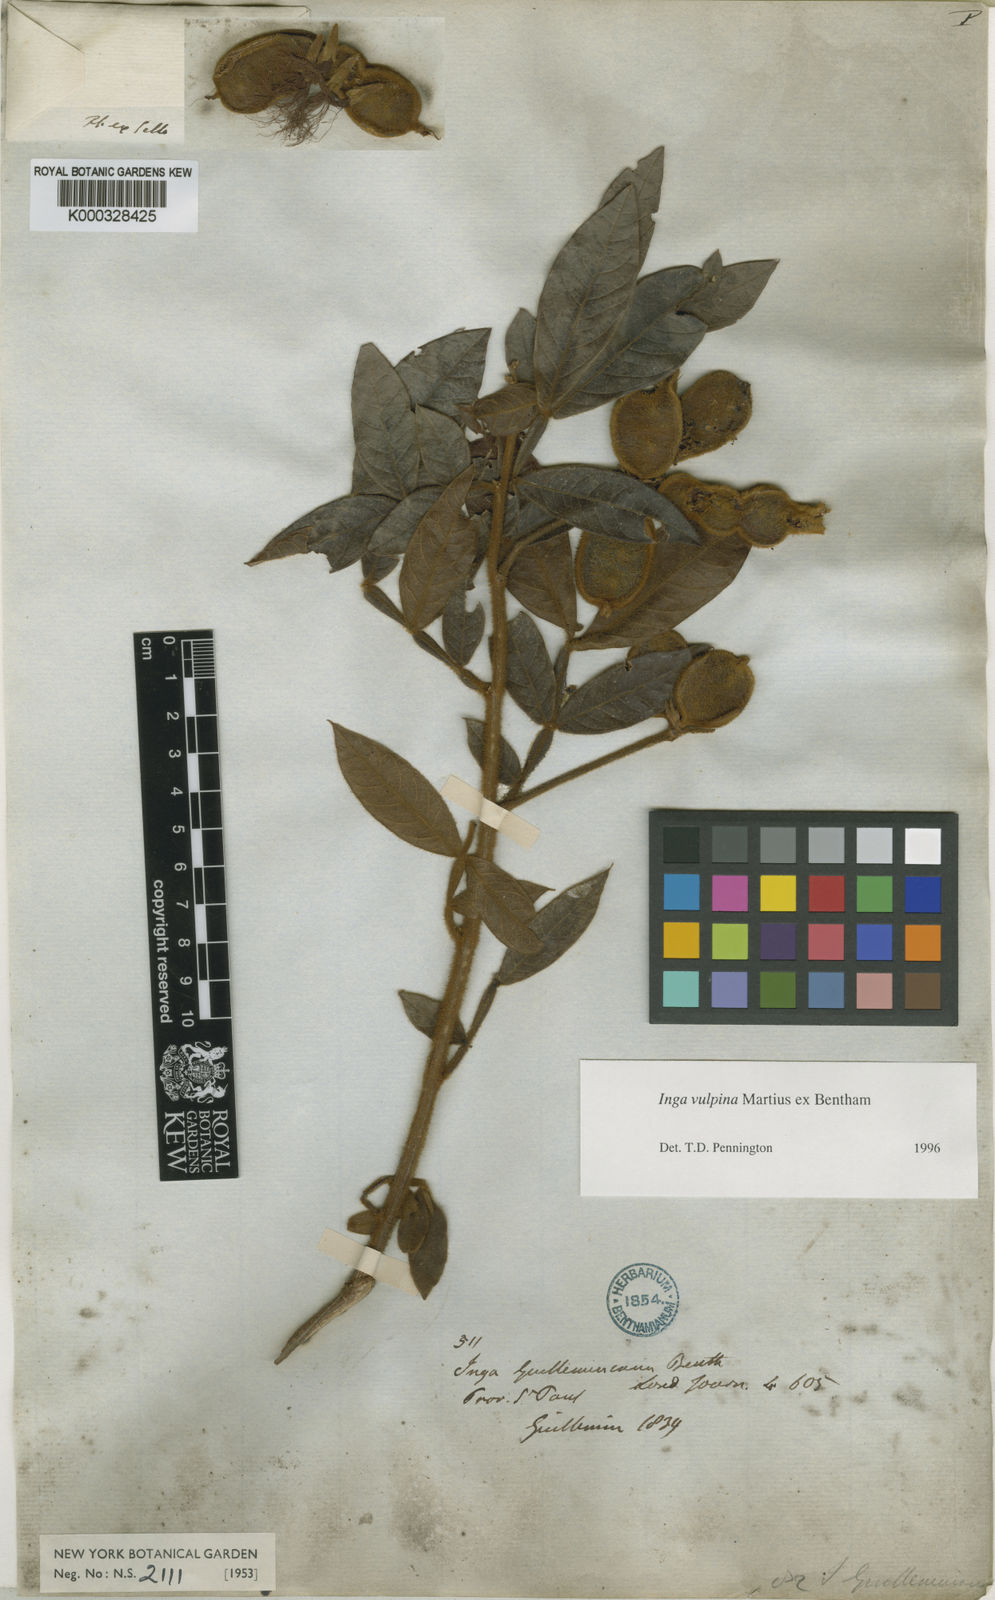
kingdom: Plantae
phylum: Tracheophyta
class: Magnoliopsida
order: Fabales
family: Fabaceae
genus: Inga
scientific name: Inga vulpina
